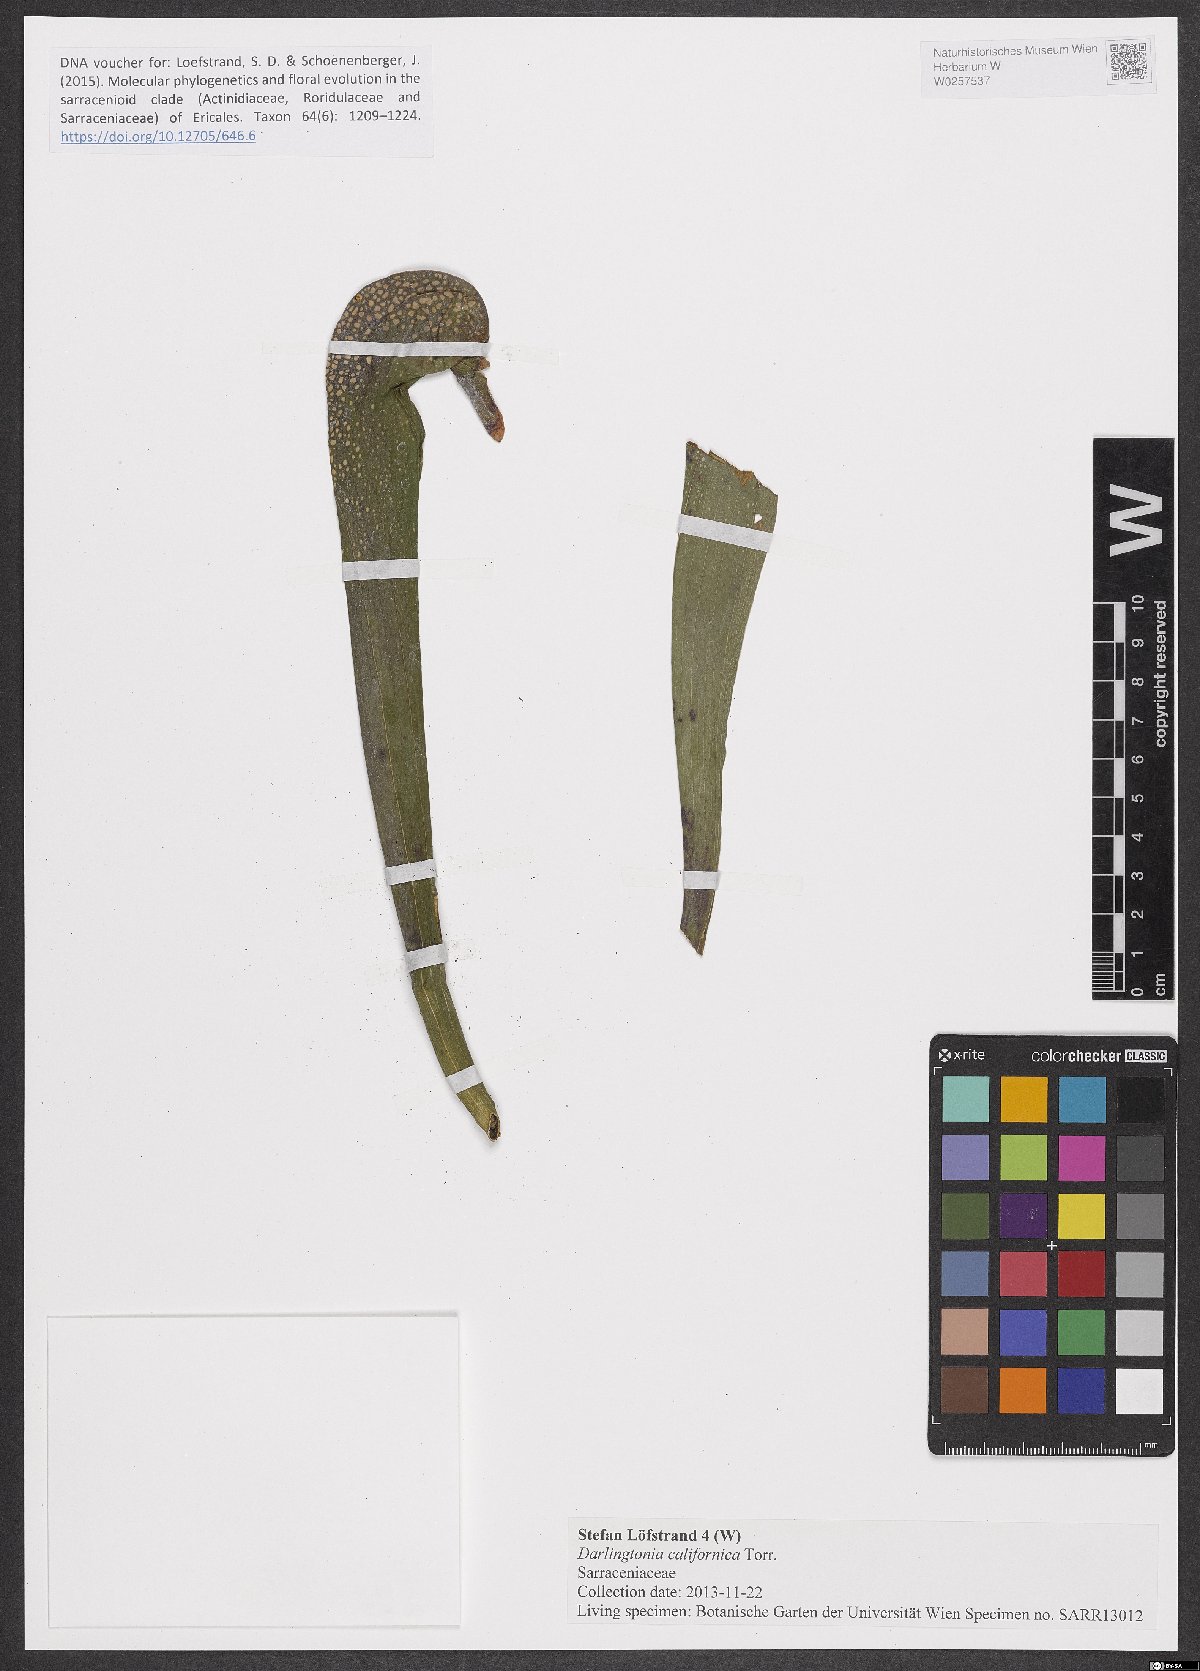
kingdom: Plantae
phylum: Tracheophyta
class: Magnoliopsida
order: Ericales
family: Sarraceniaceae
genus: Darlingtonia
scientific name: Darlingtonia californica
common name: California pitcher plant
